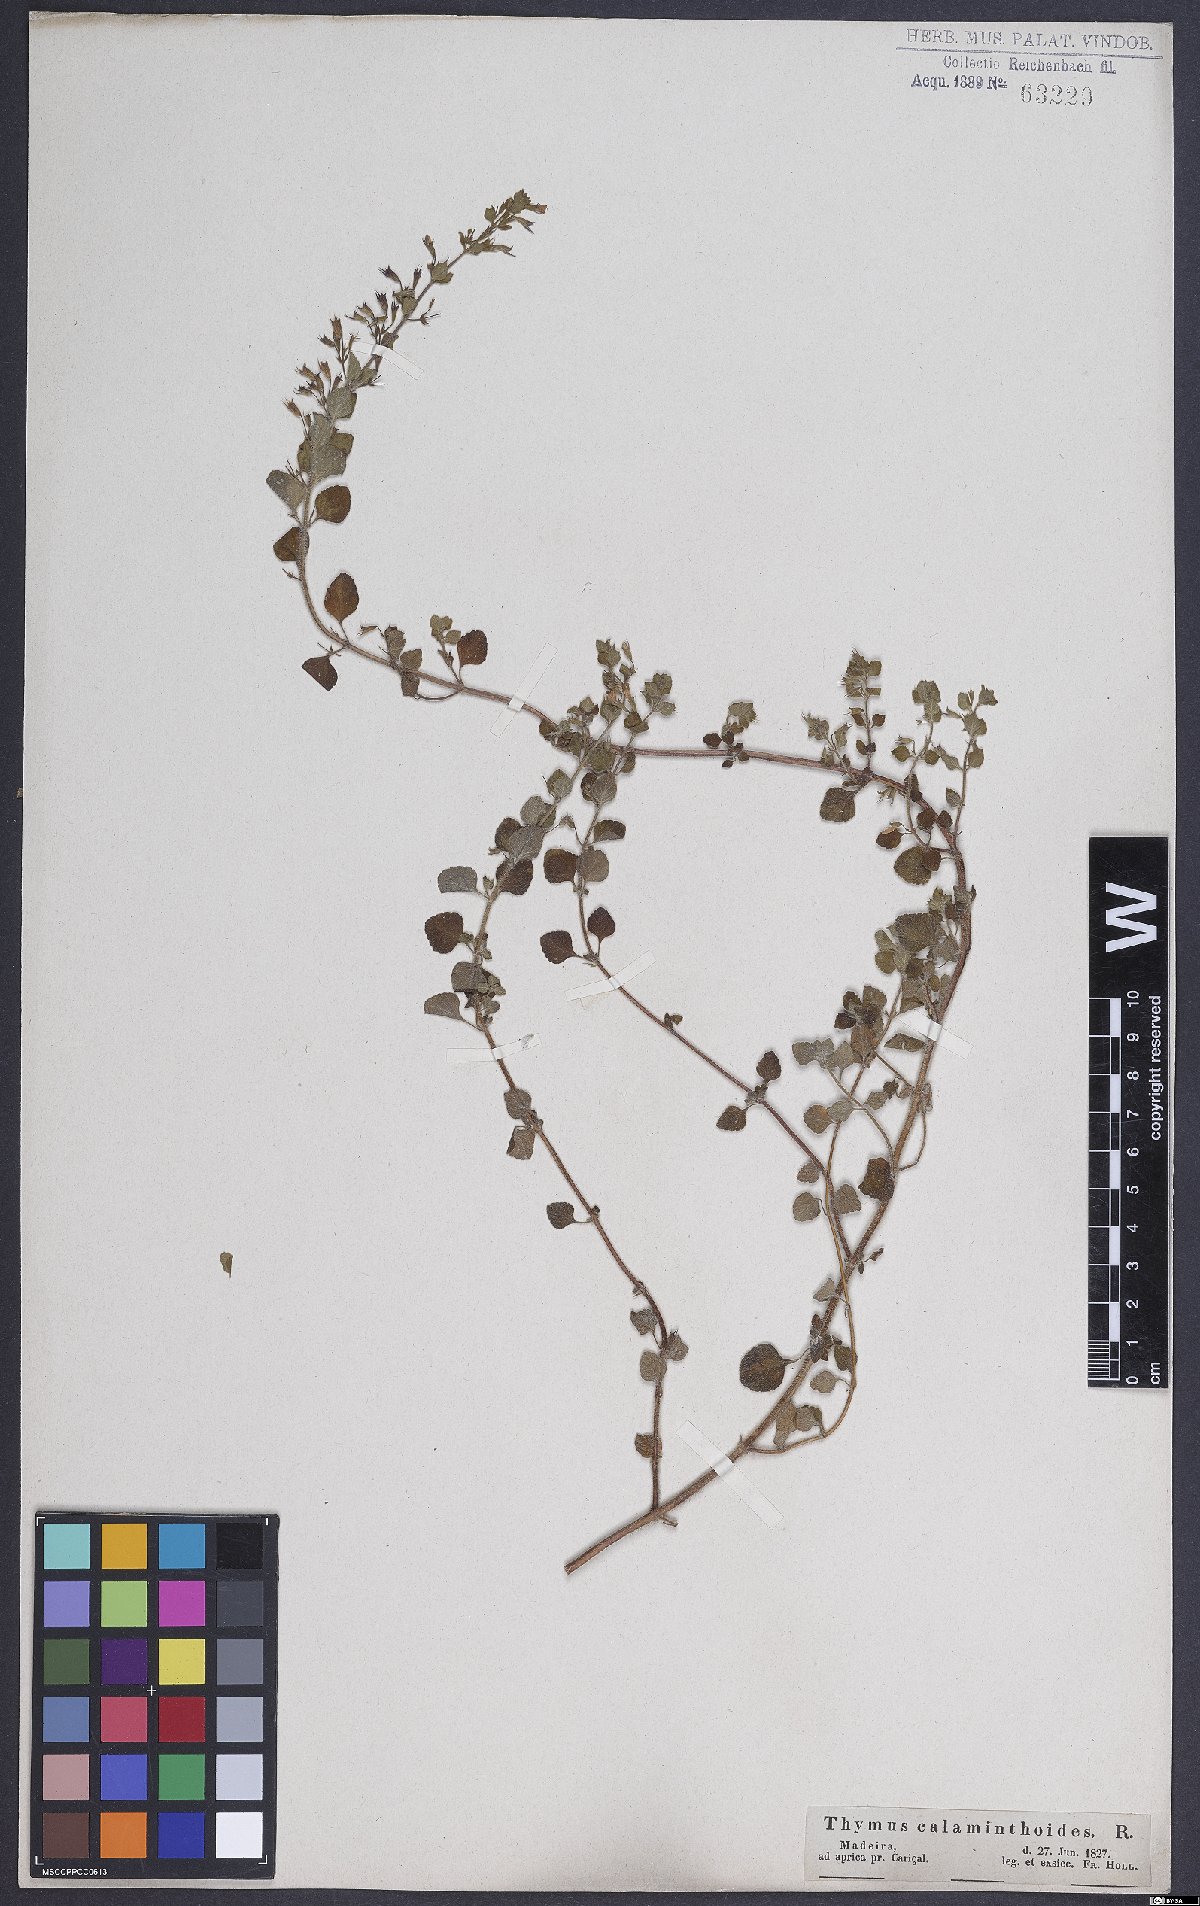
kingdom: Plantae
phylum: Tracheophyta
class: Magnoliopsida
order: Lamiales
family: Lamiaceae
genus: Calamintha
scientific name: Calamintha
